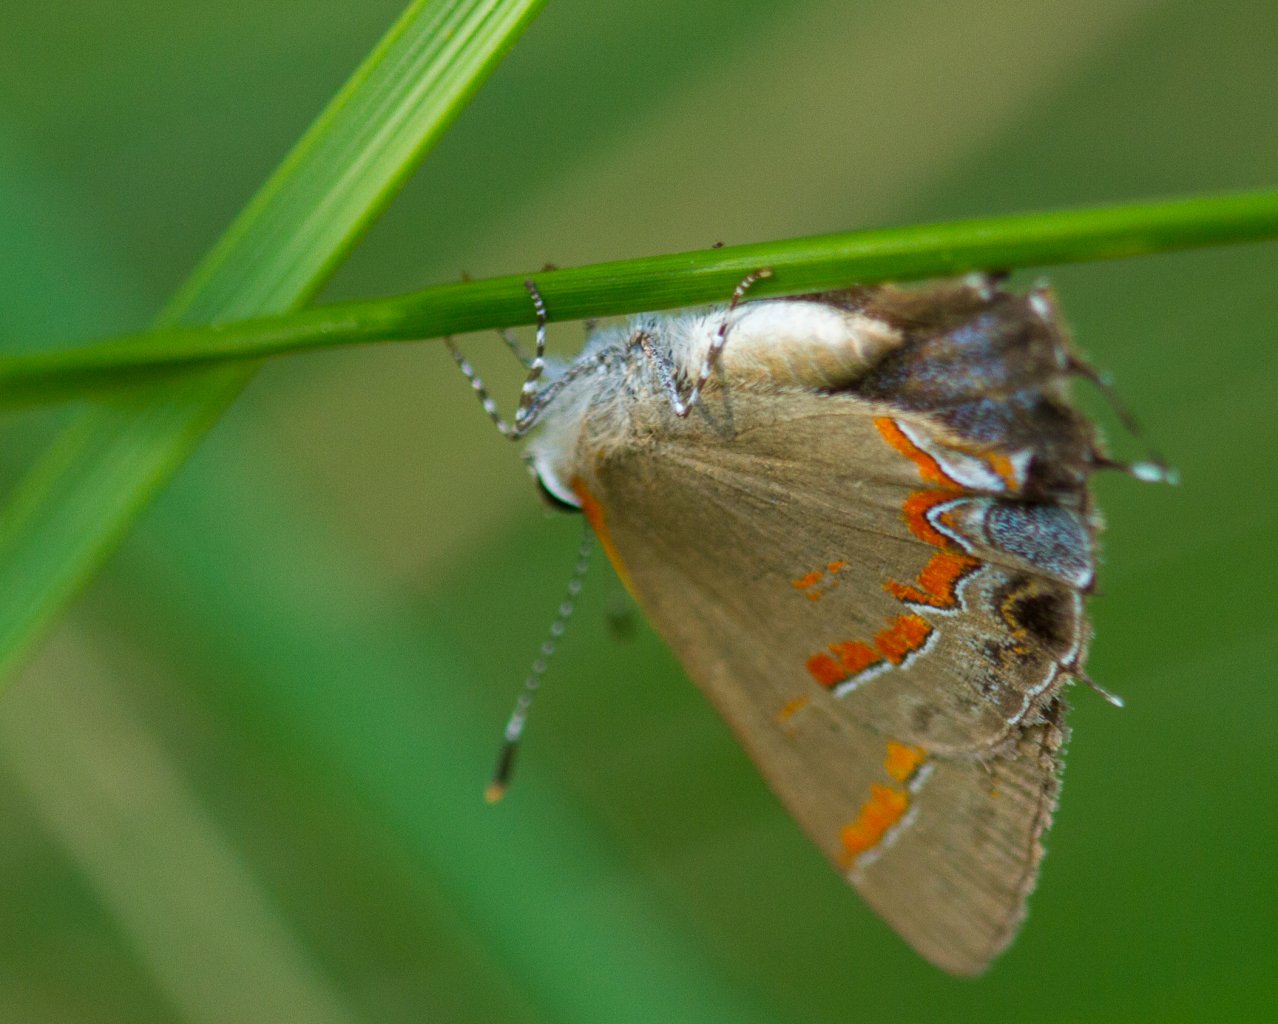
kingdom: Animalia
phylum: Arthropoda
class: Insecta
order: Lepidoptera
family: Lycaenidae
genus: Calycopis
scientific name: Calycopis cecrops
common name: Red-banded Hairstreak
